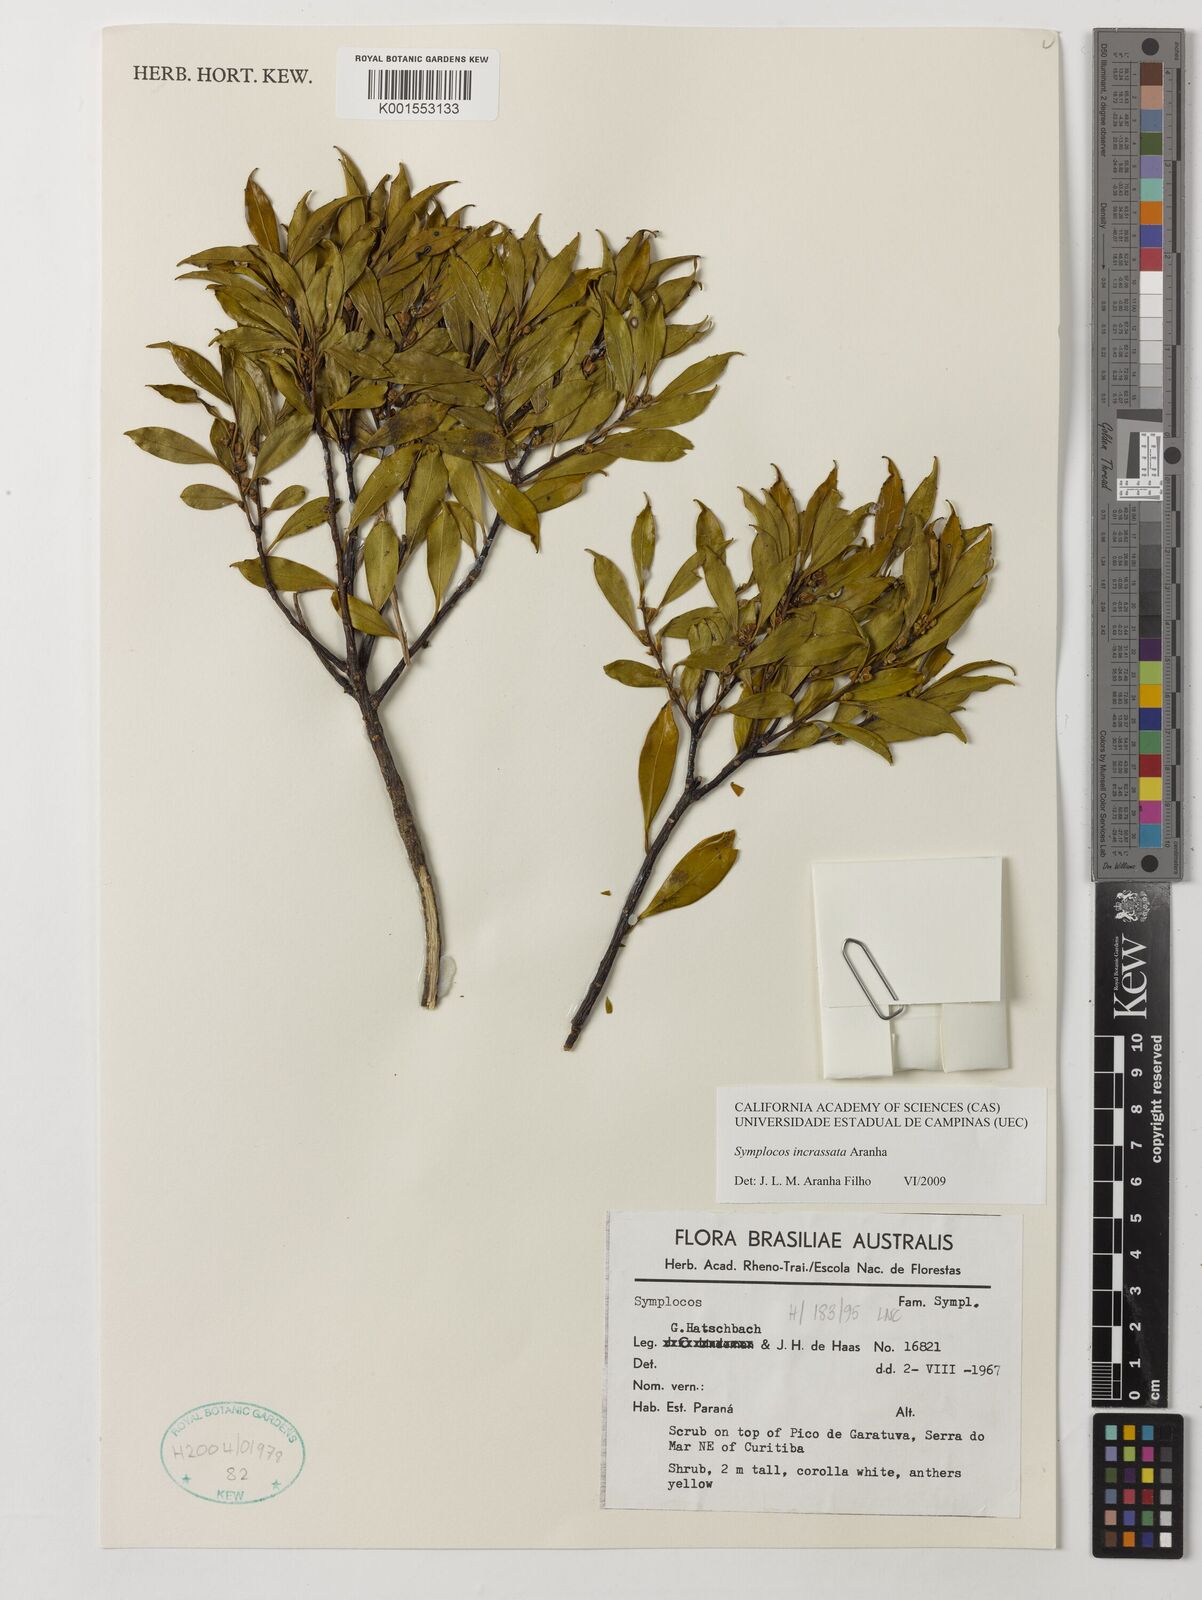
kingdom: Plantae
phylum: Tracheophyta
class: Magnoliopsida
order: Ericales
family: Symplocaceae
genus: Symplocos
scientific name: Symplocos incrassata
